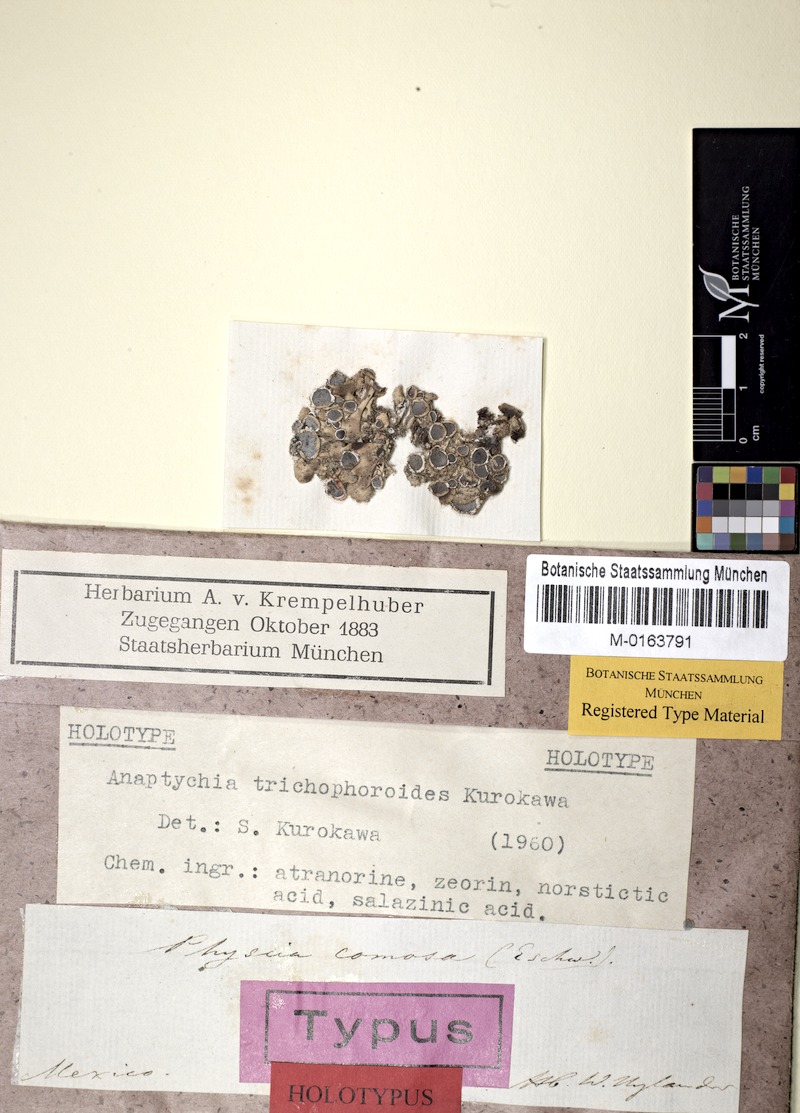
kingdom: Fungi
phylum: Ascomycota
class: Lecanoromycetes
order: Caliciales
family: Physciaceae
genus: Heterodermia
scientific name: Heterodermia
